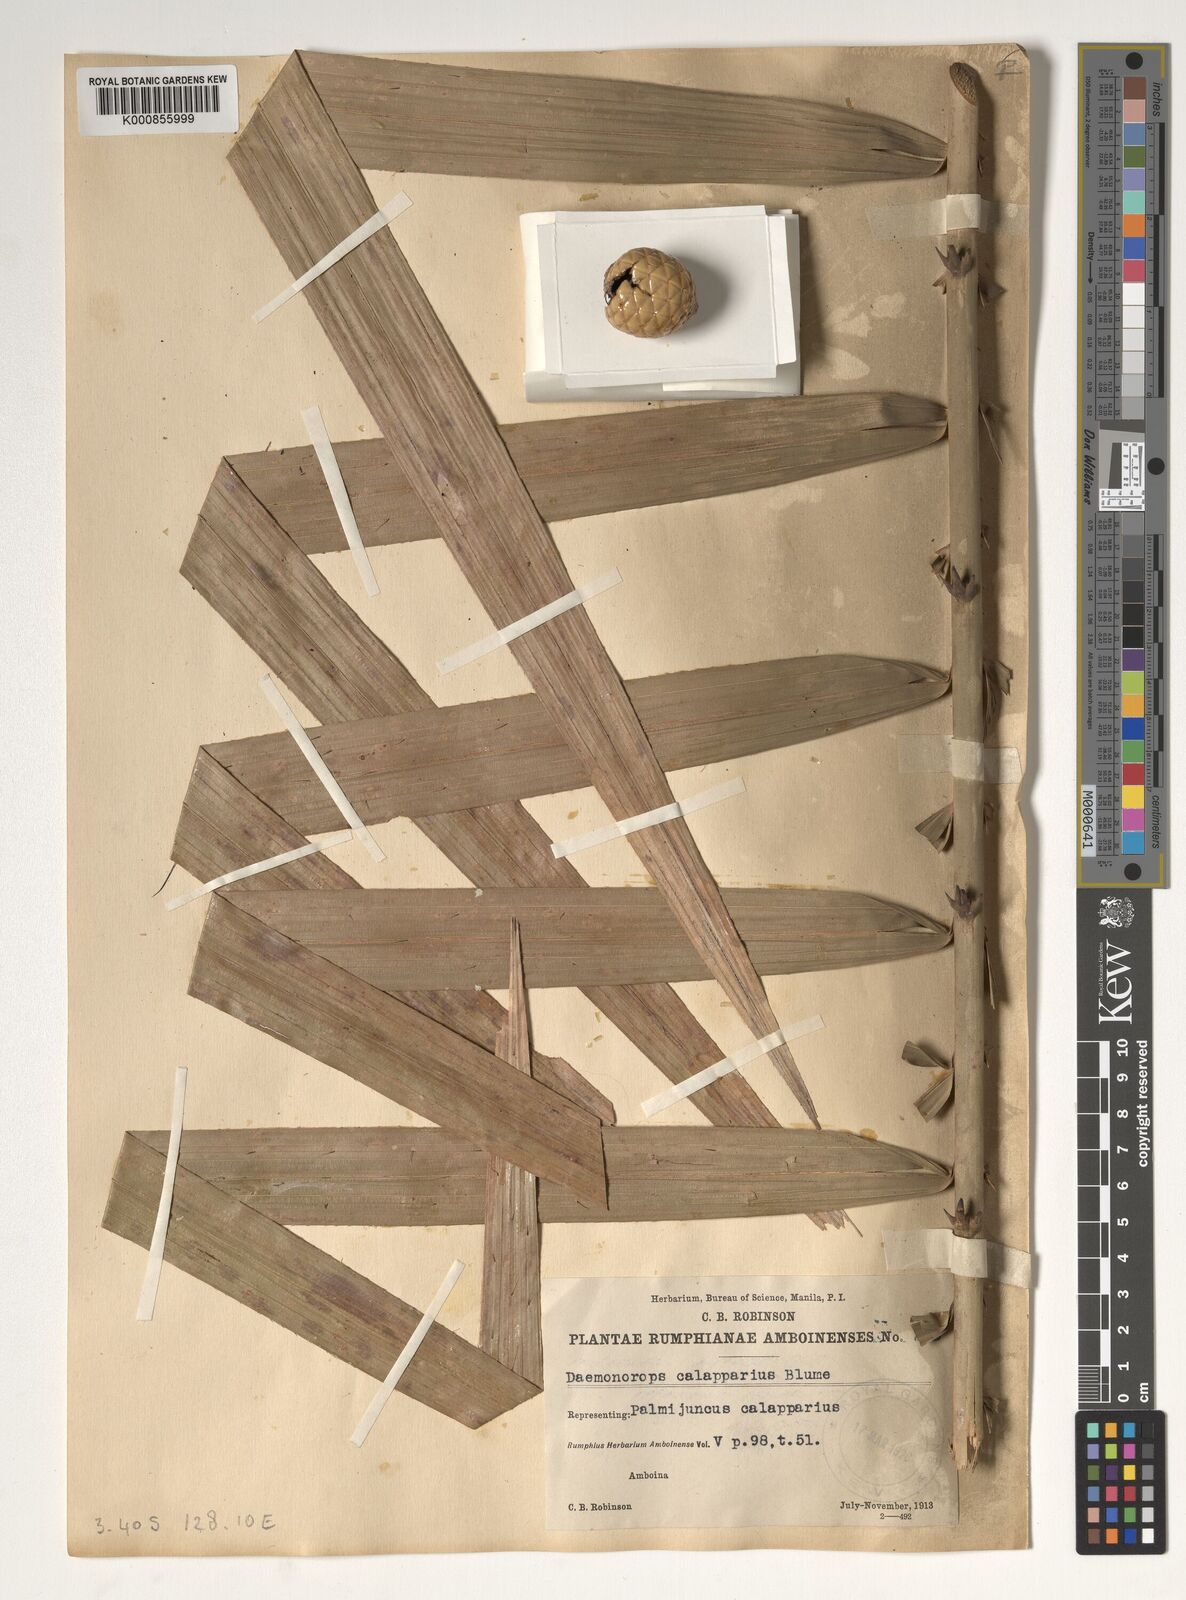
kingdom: Plantae
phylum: Tracheophyta
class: Liliopsida
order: Arecales
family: Arecaceae
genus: Calamus
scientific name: Calamus calapparius
